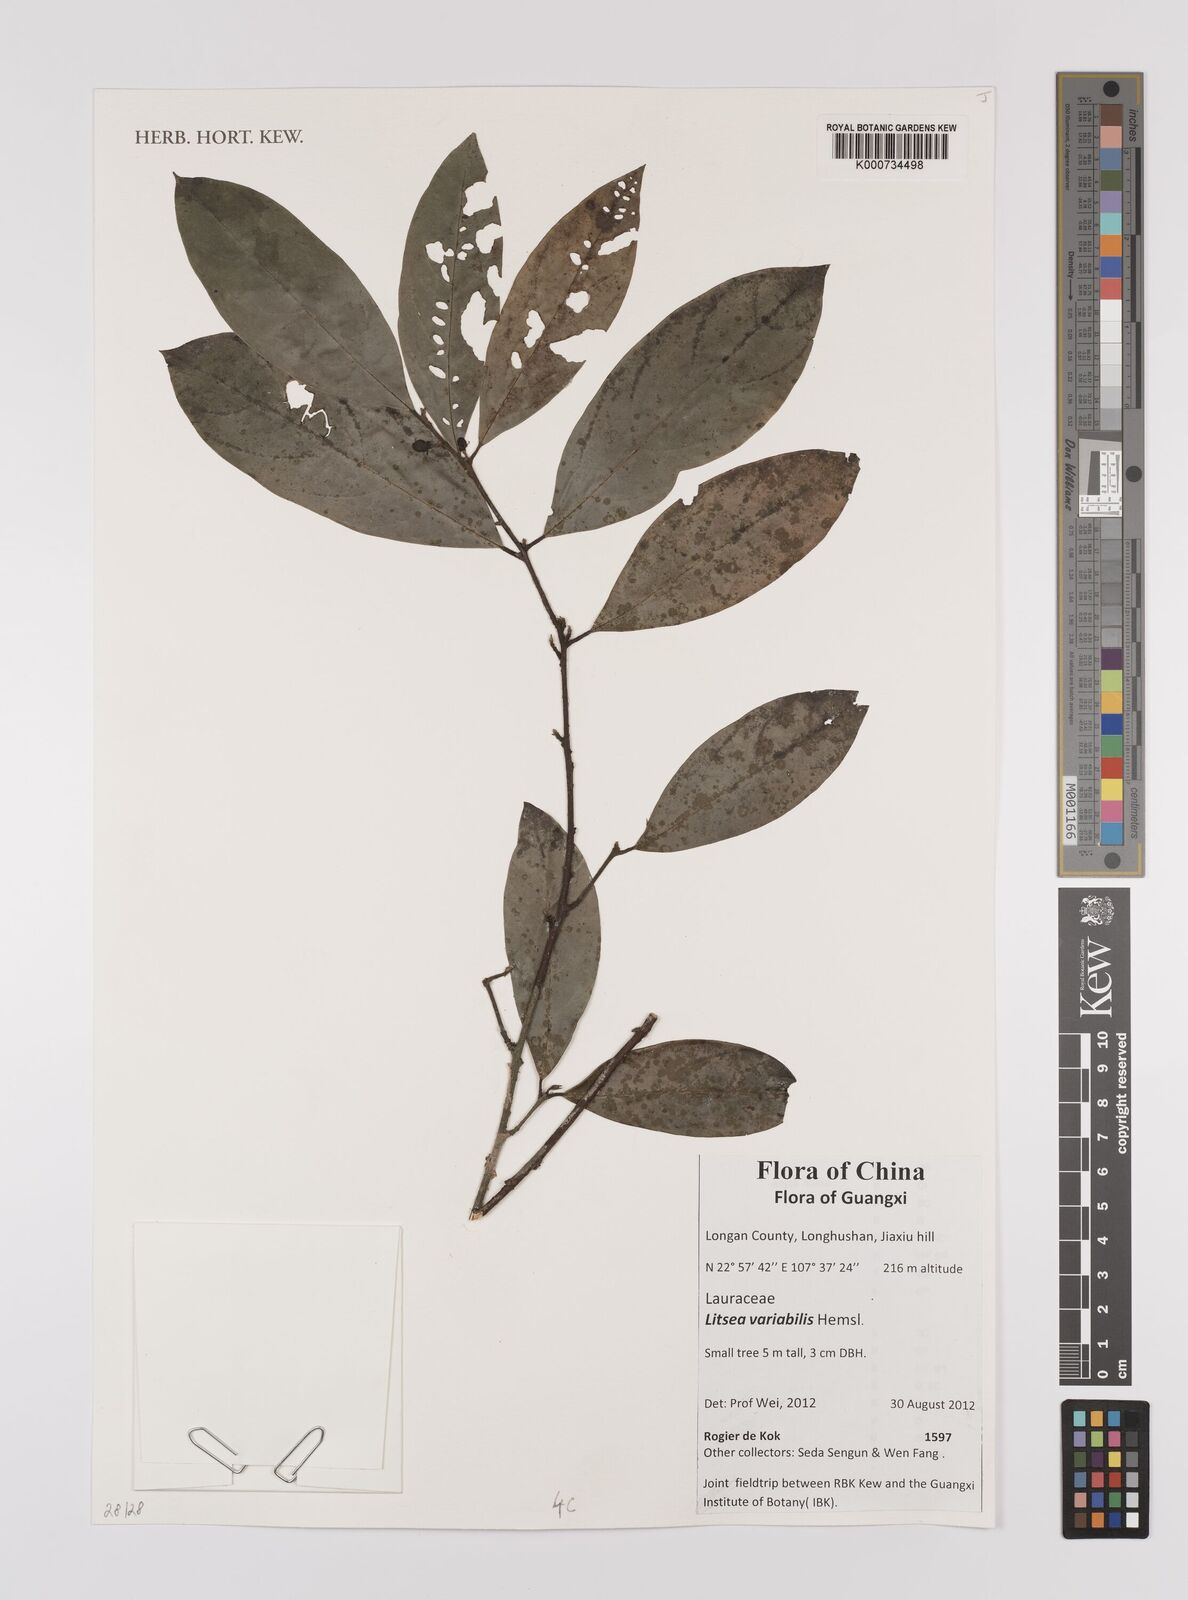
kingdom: Plantae
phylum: Tracheophyta
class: Magnoliopsida
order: Laurales
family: Lauraceae
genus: Litsea
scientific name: Litsea variabilis
